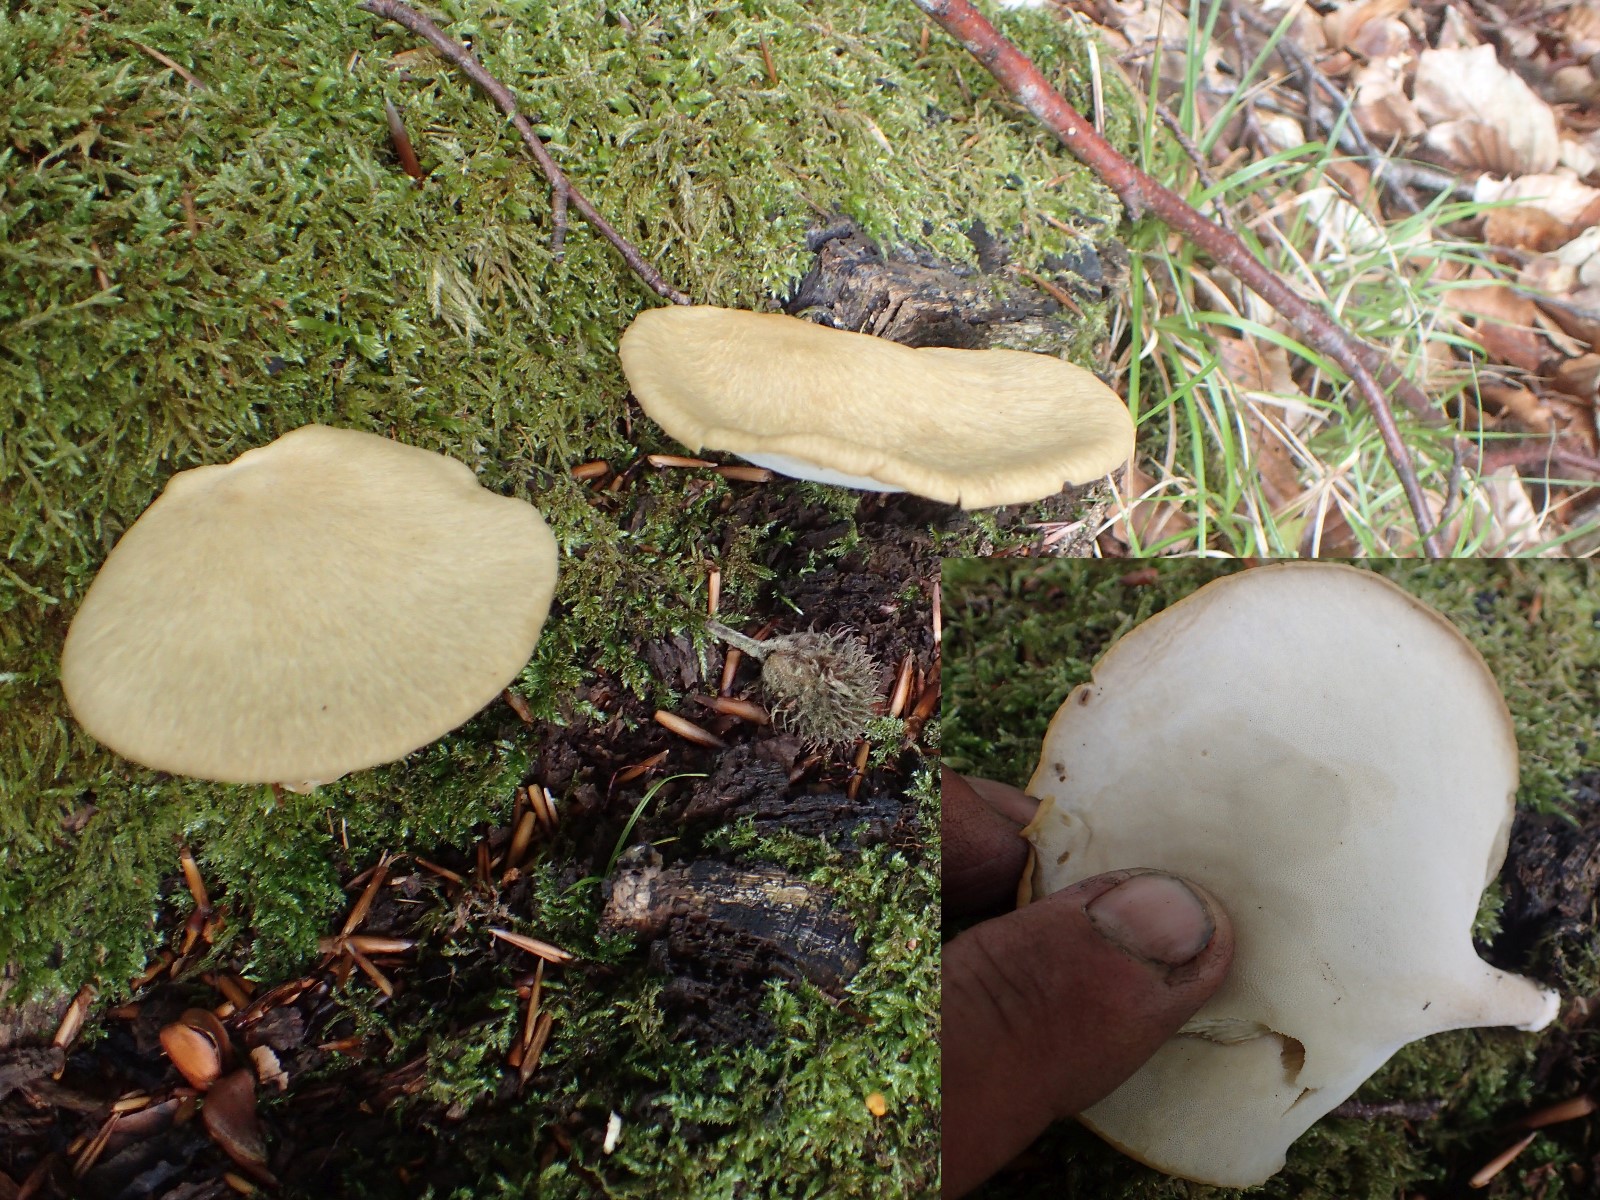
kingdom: Fungi
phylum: Basidiomycota
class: Agaricomycetes
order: Polyporales
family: Polyporaceae
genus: Lentinus
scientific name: Lentinus substrictus
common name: forårs-stilkporesvamp
